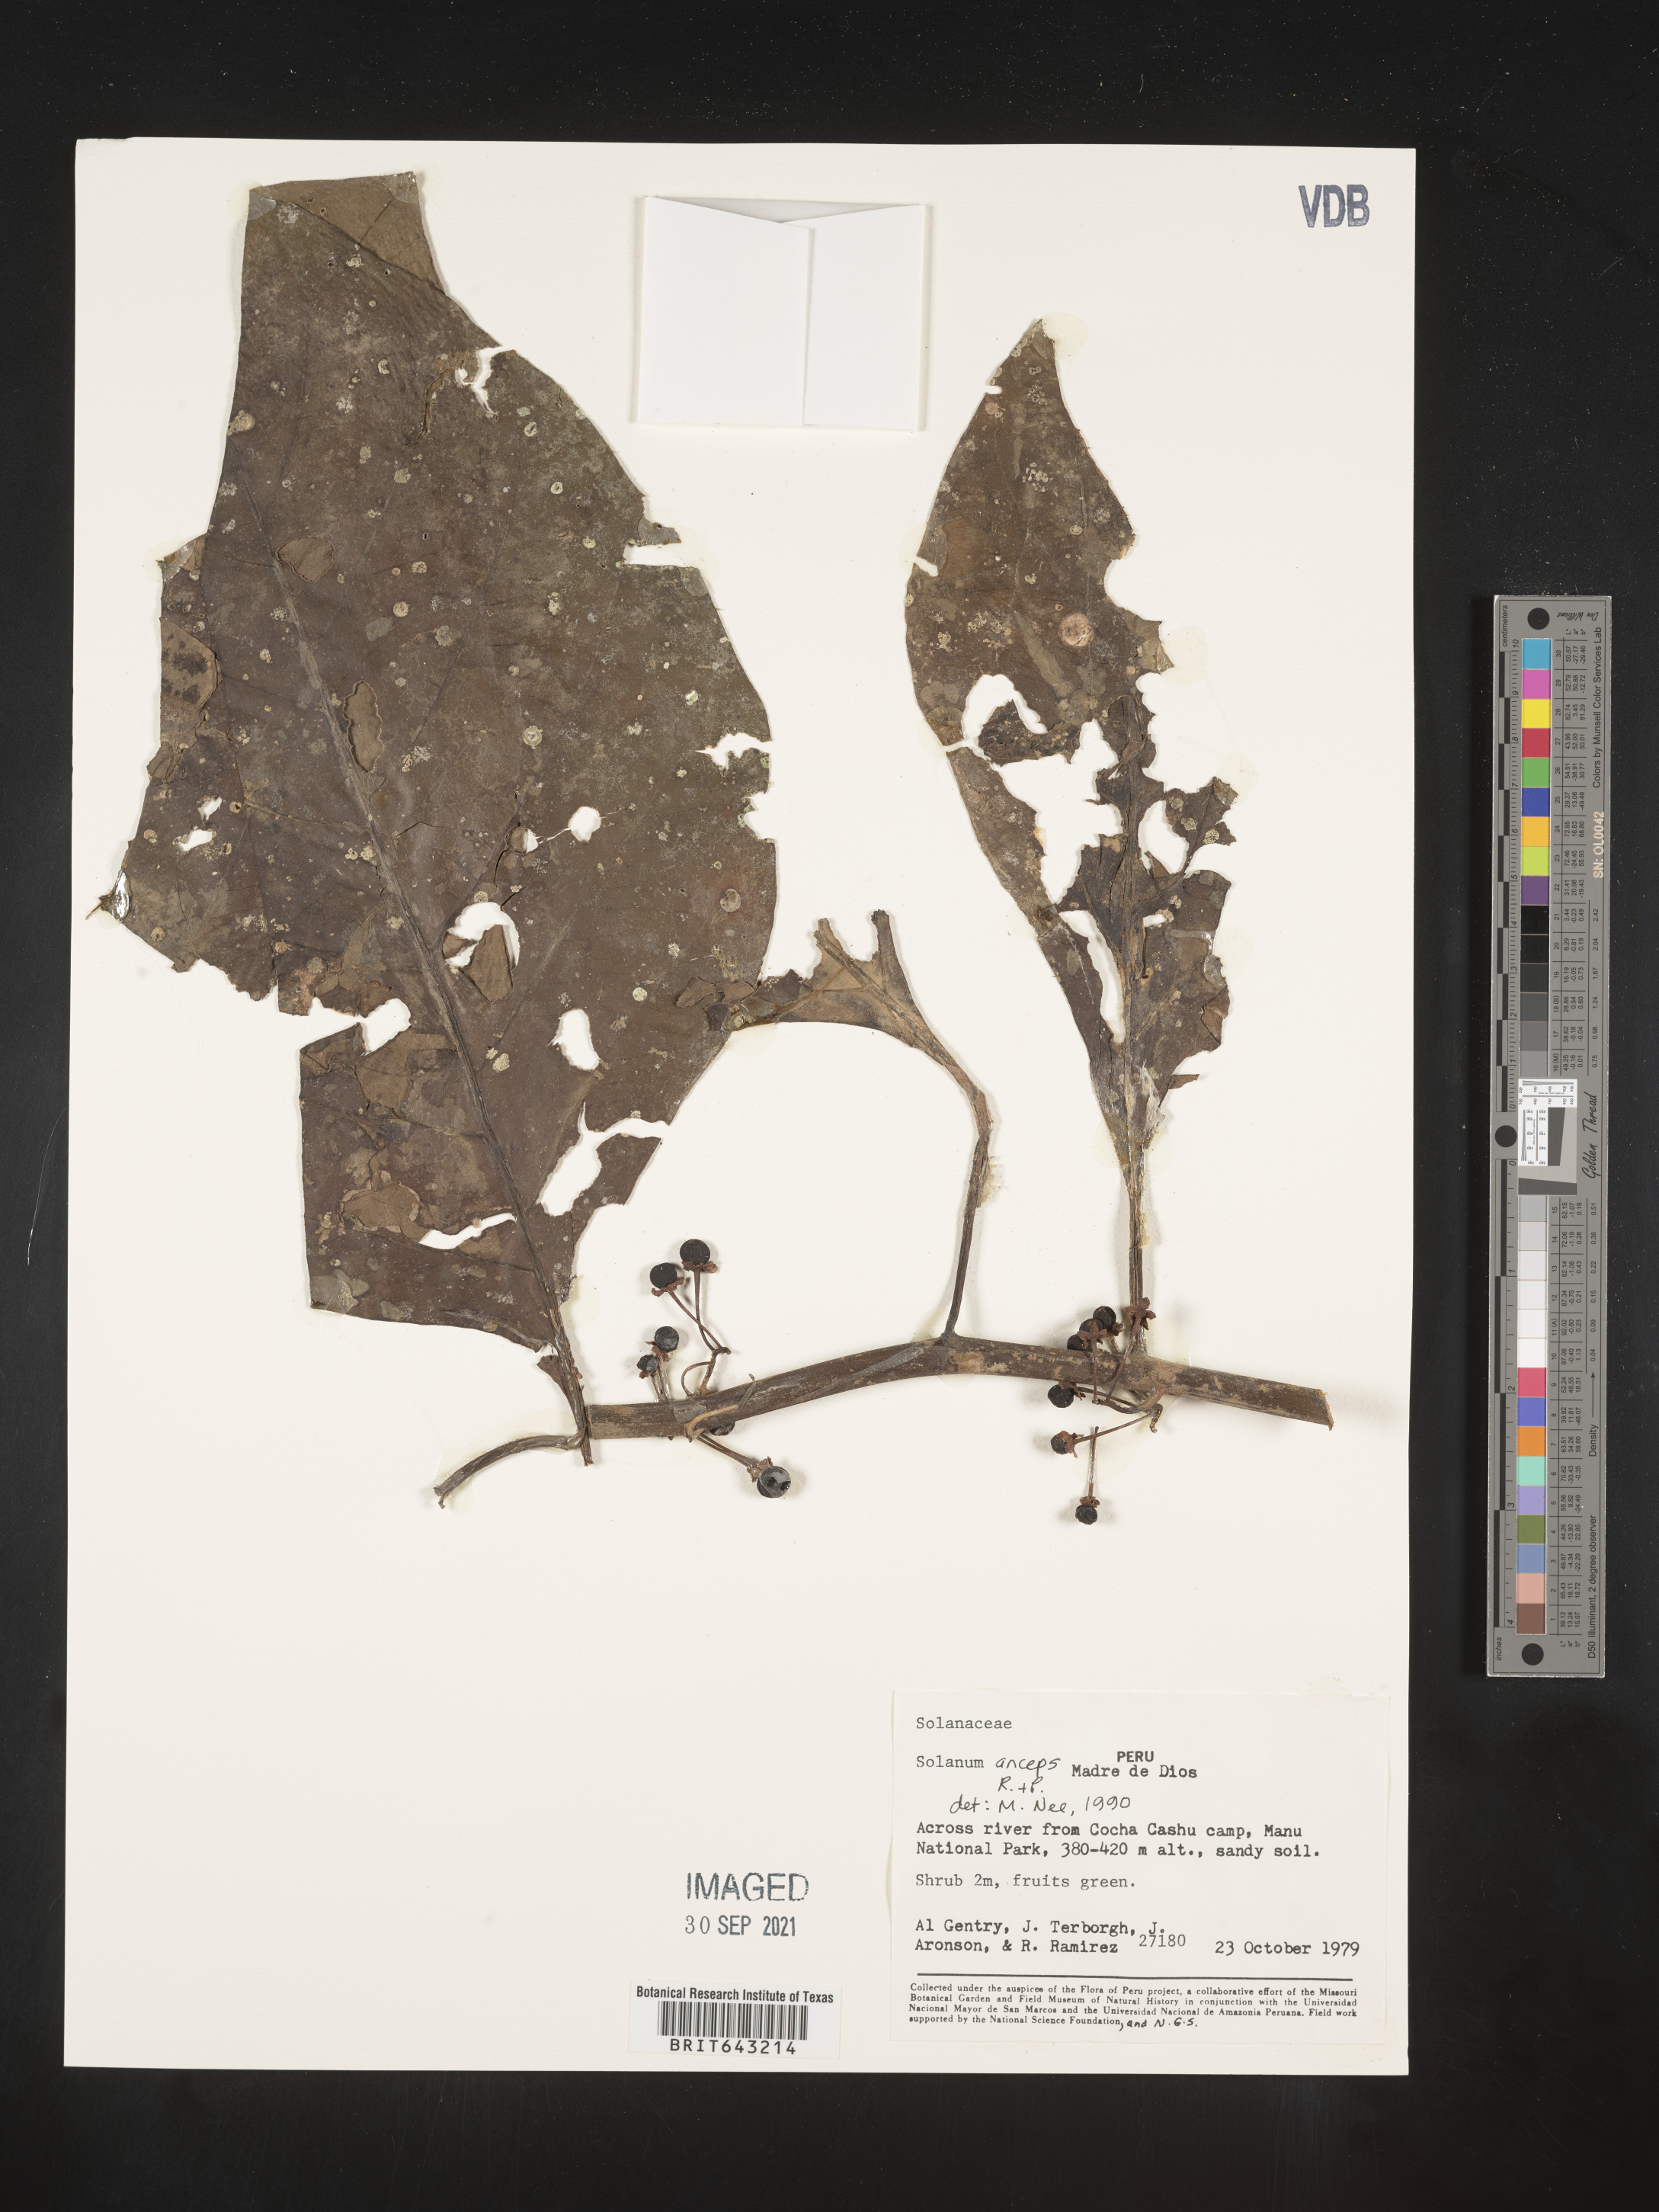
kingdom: Plantae
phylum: Tracheophyta
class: Magnoliopsida
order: Solanales
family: Solanaceae
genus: Solanum
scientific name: Solanum
